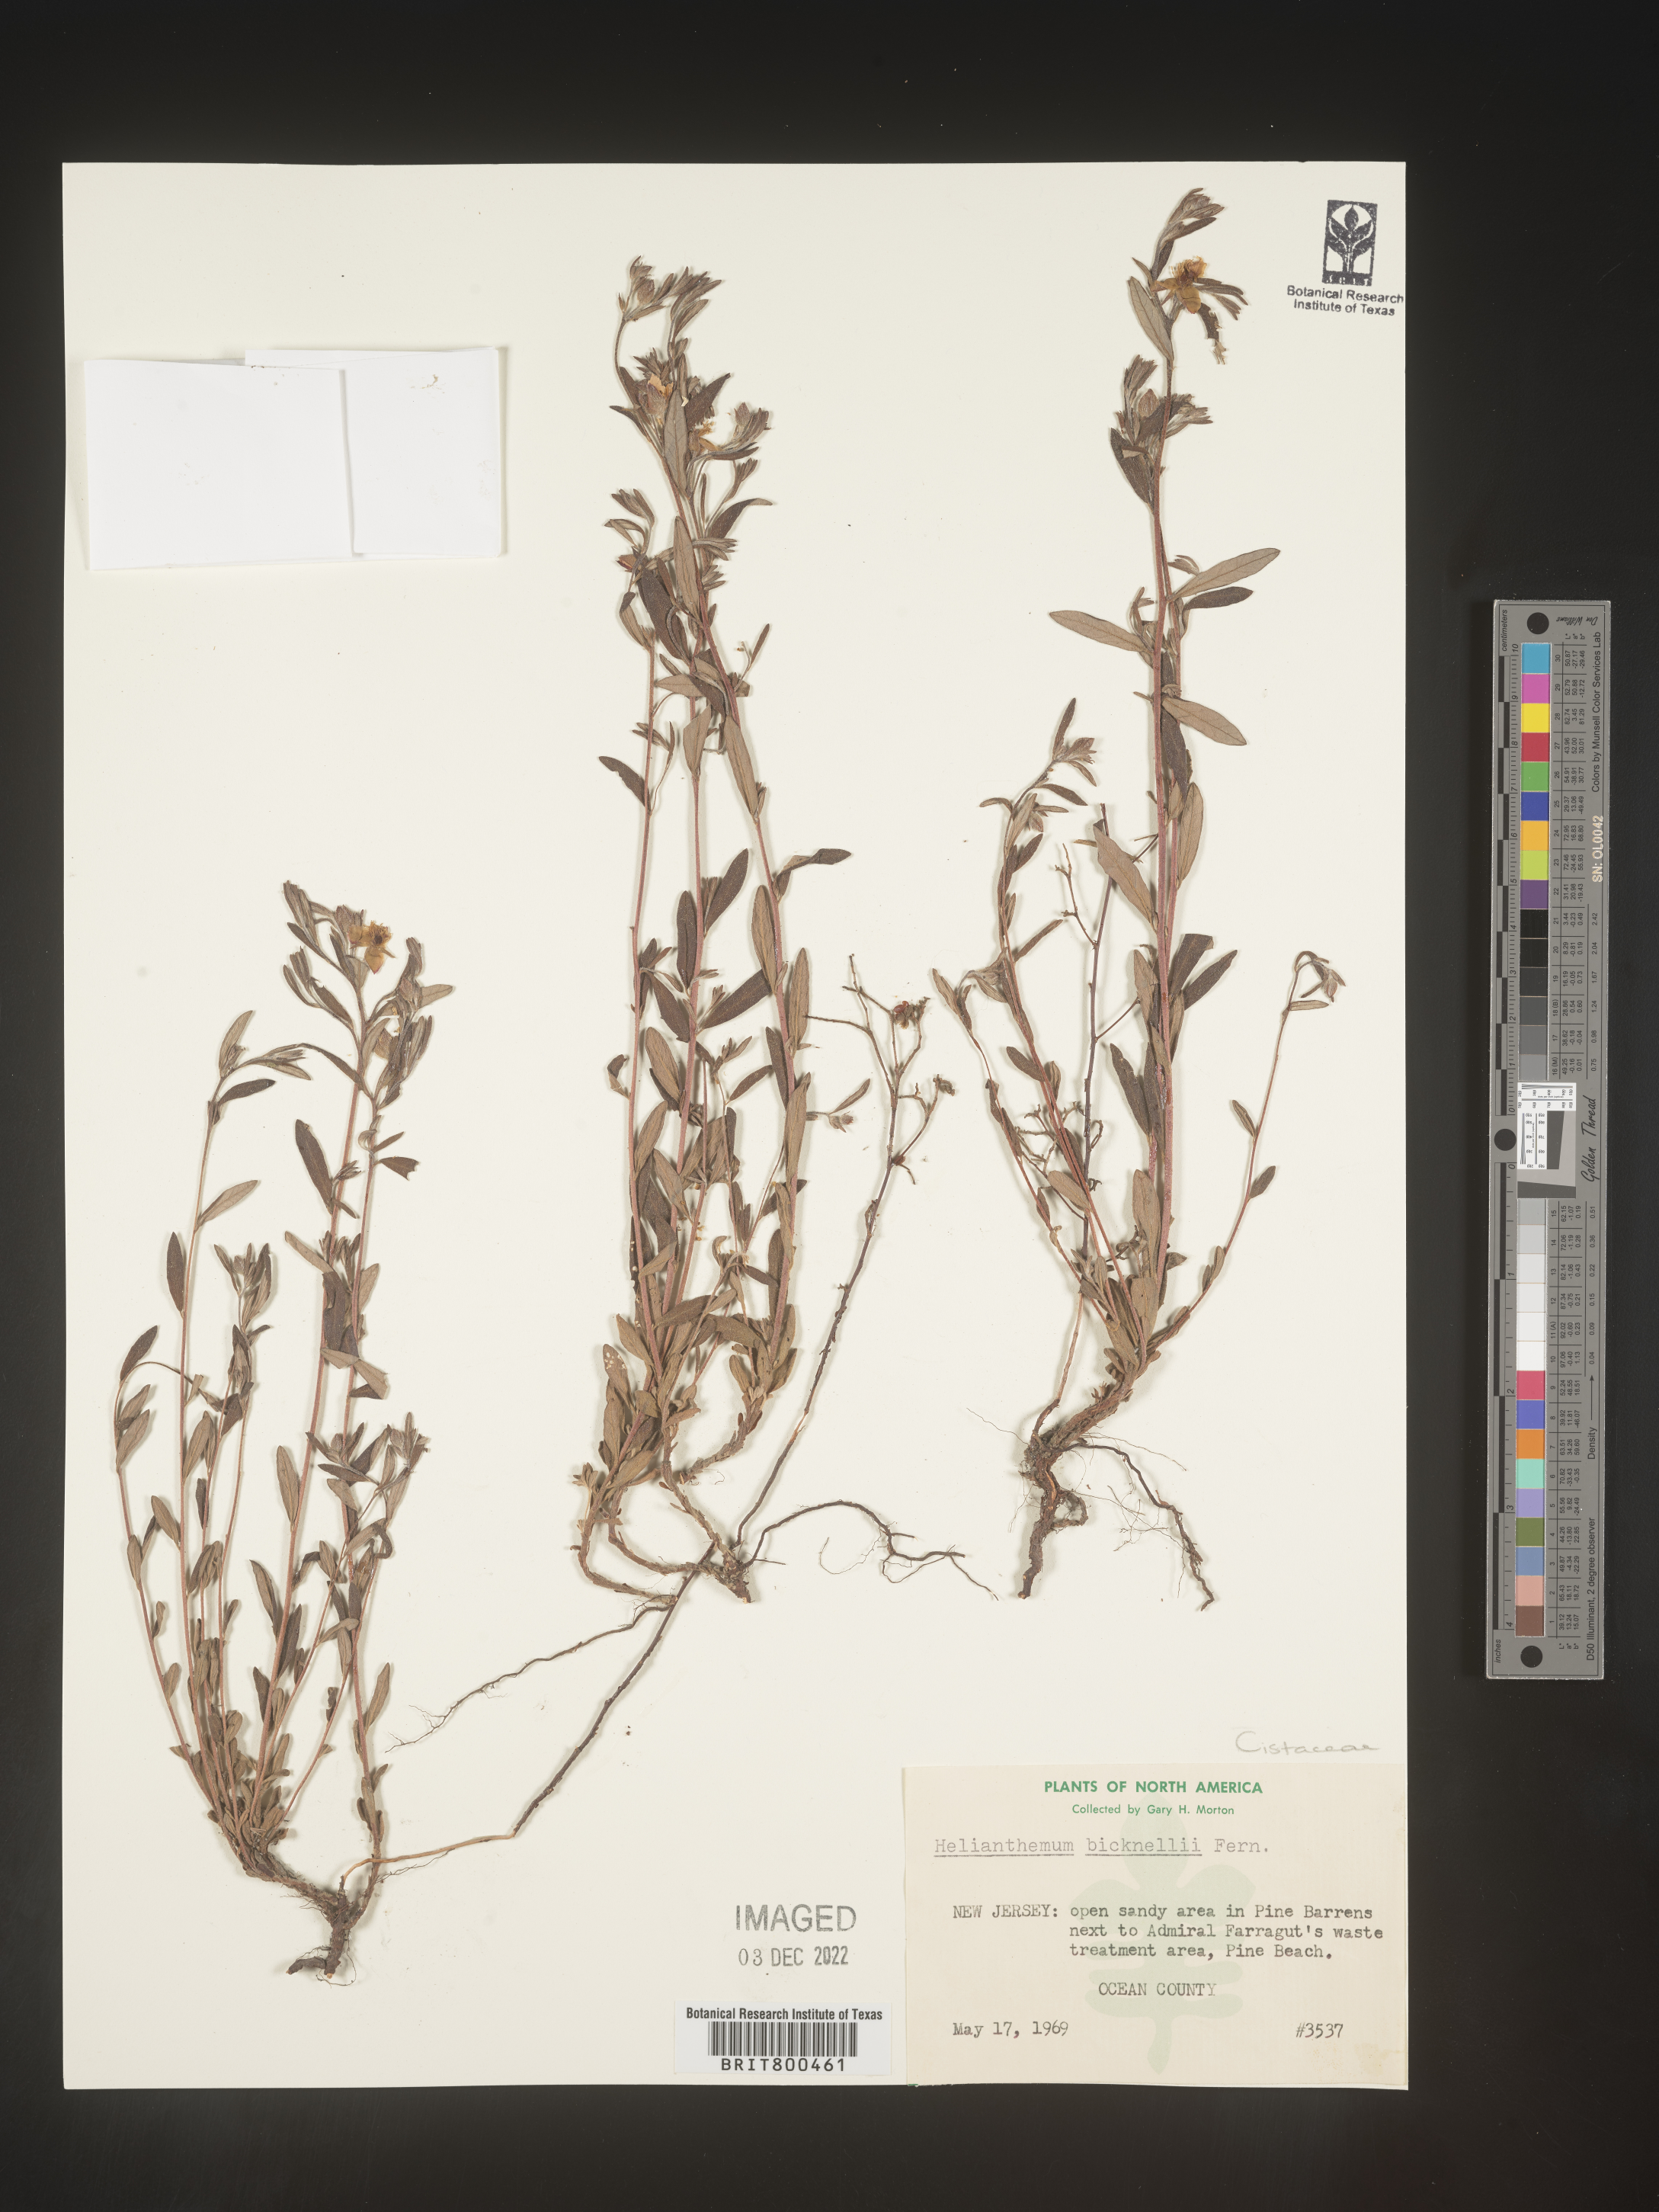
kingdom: Plantae
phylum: Tracheophyta
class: Magnoliopsida
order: Malvales
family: Cistaceae
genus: Helianthemum
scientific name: Helianthemum
